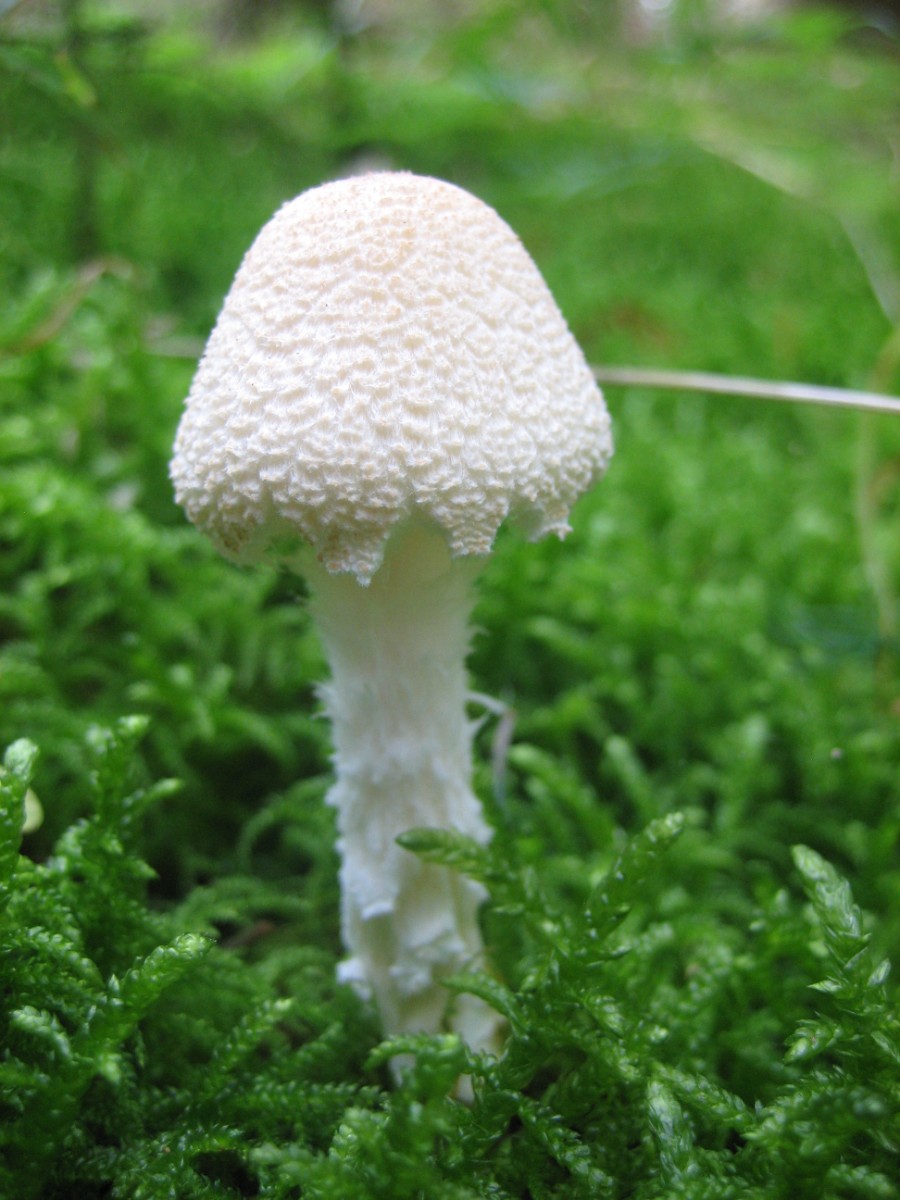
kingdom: Fungi
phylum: Basidiomycota
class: Agaricomycetes
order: Agaricales
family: Agaricaceae
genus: Lepiota
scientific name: Lepiota clypeolaria
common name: flosset parasolhat
